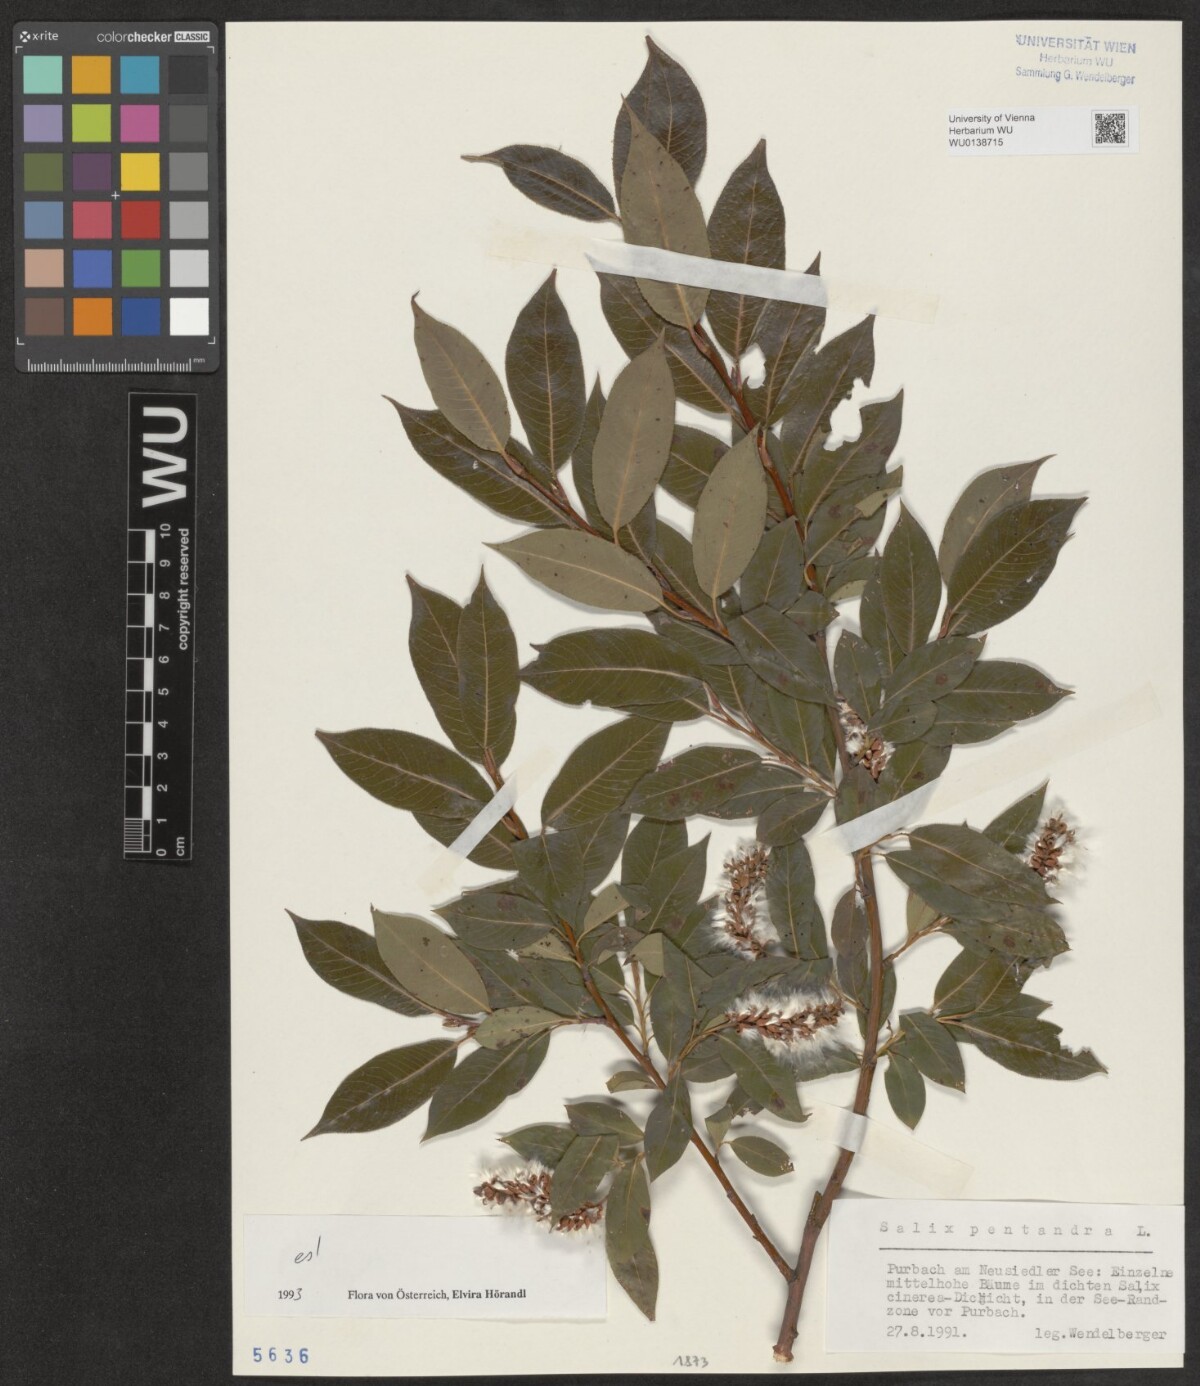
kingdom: Plantae
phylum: Tracheophyta
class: Magnoliopsida
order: Malpighiales
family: Salicaceae
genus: Salix
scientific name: Salix pentandra
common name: Bay willow
